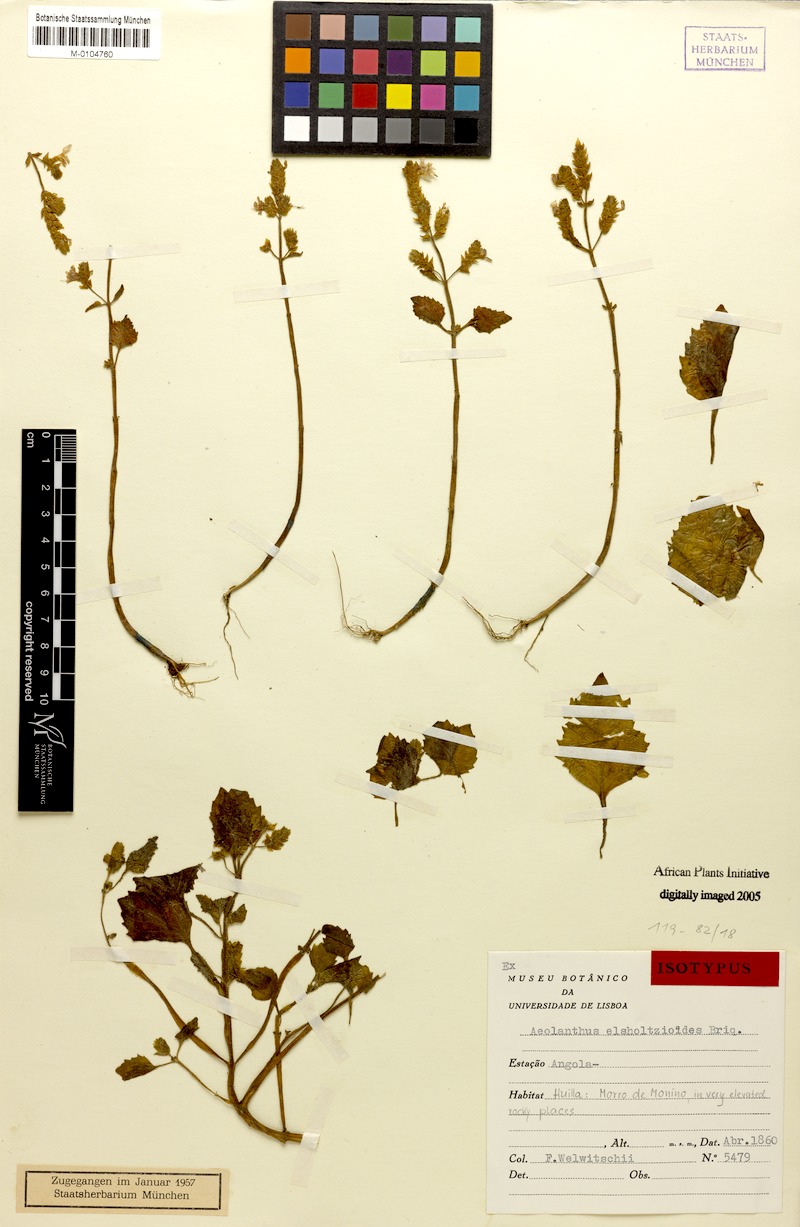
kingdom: Plantae
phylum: Tracheophyta
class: Magnoliopsida
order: Lamiales
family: Lamiaceae
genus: Aeollanthus
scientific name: Aeollanthus elsholtzioides
